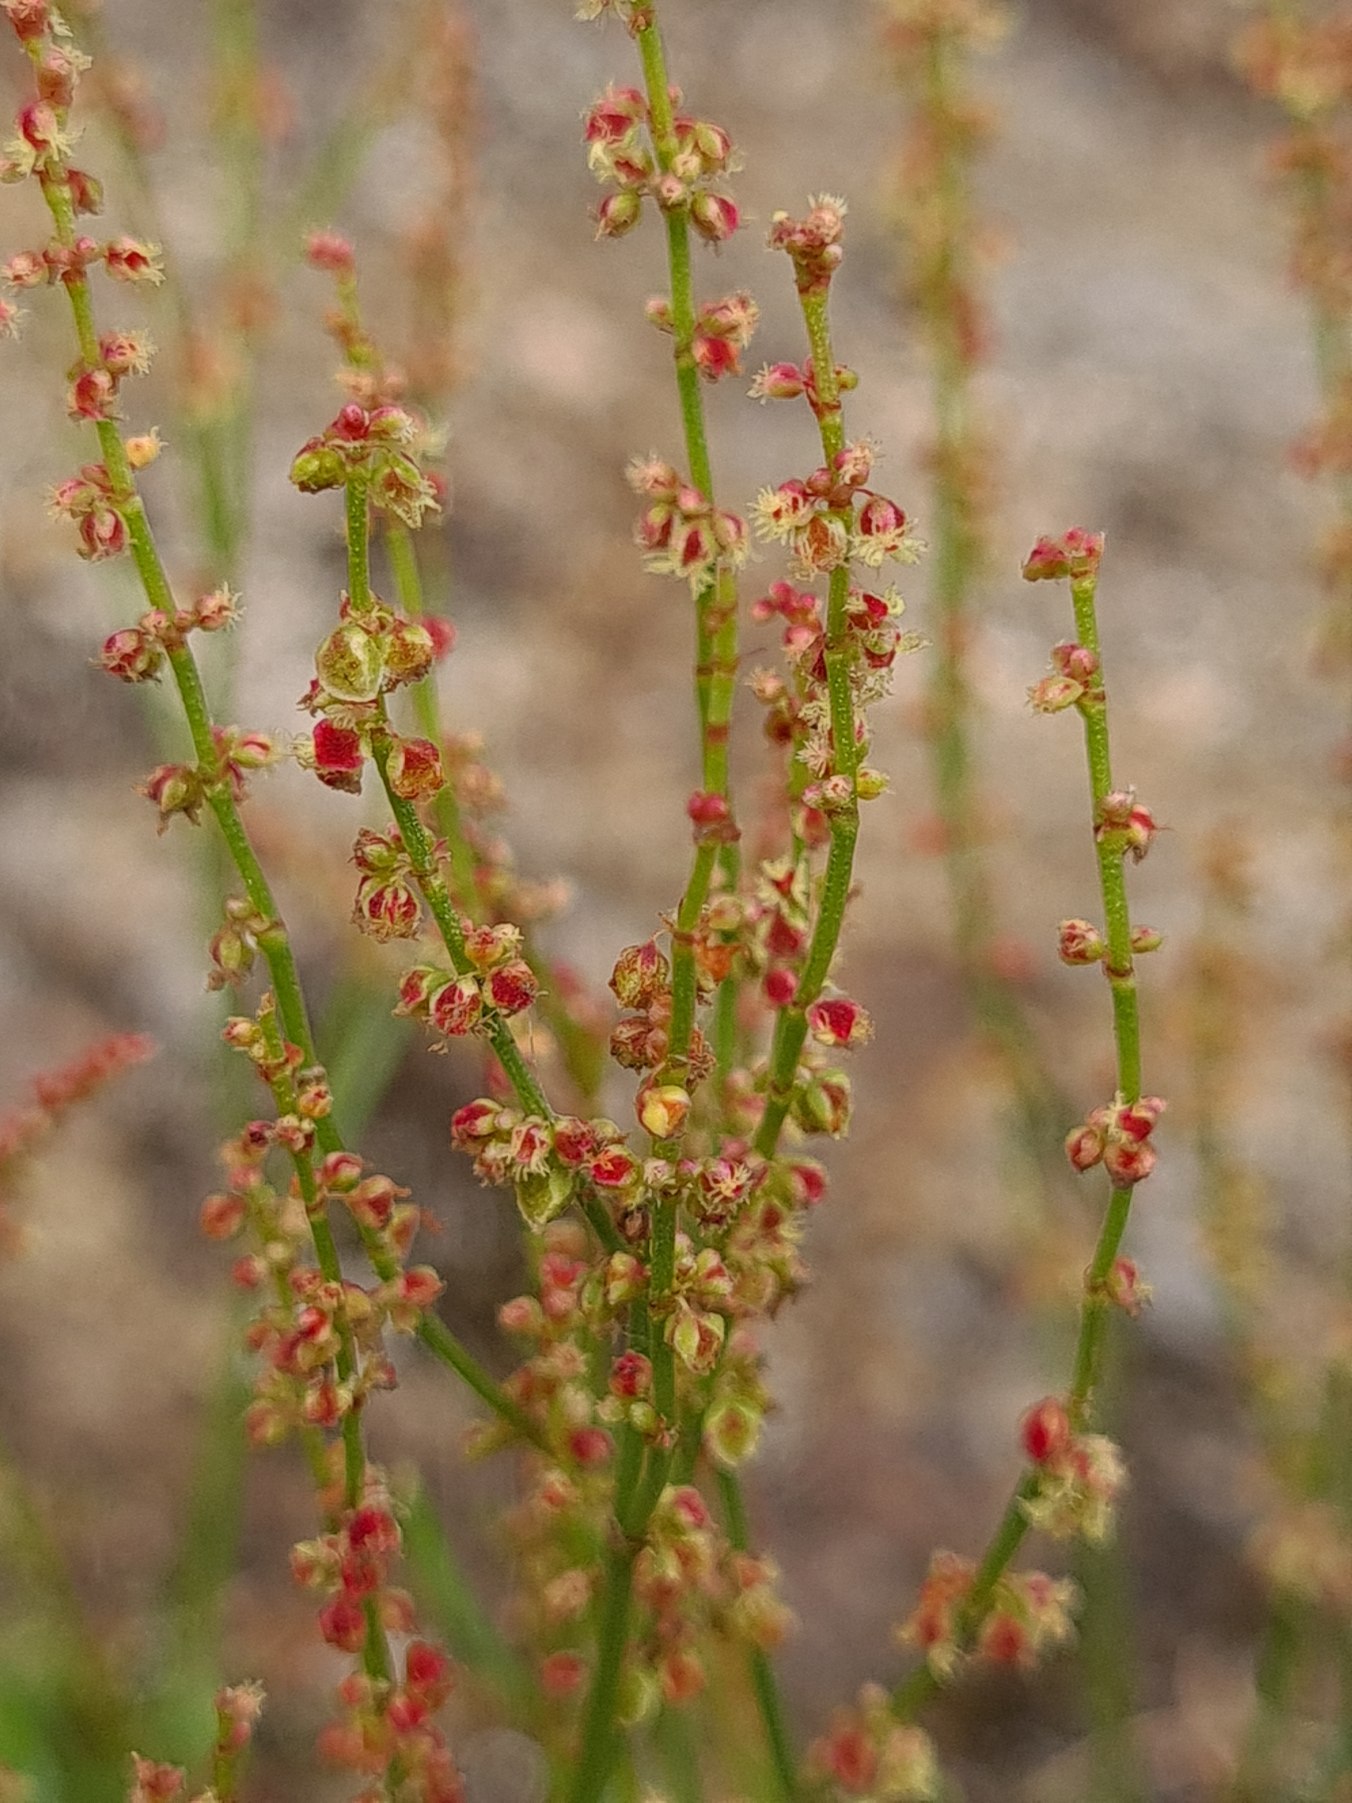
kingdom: Plantae
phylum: Tracheophyta
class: Magnoliopsida
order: Caryophyllales
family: Polygonaceae
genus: Rumex
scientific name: Rumex acetosella
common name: Rødknæ
